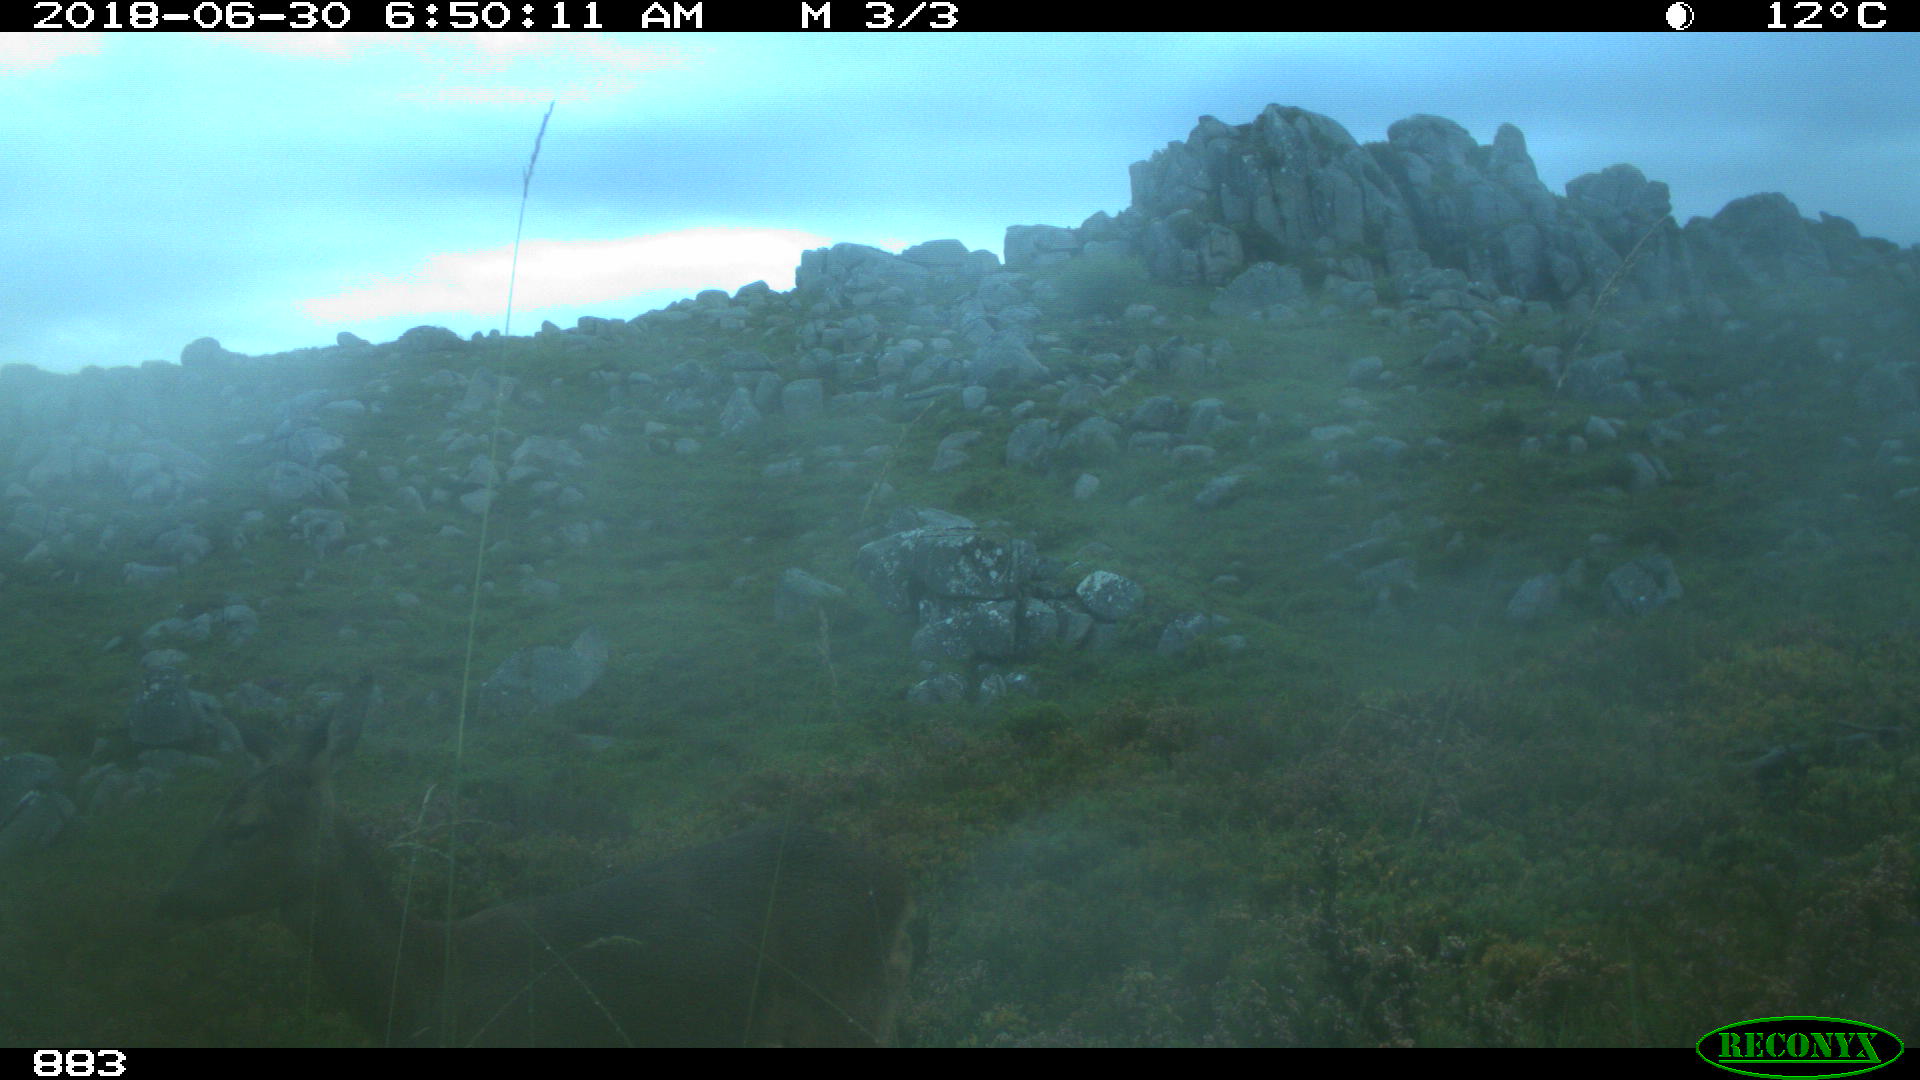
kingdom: Animalia
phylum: Chordata
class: Mammalia
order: Artiodactyla
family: Cervidae
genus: Capreolus
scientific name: Capreolus capreolus
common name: Western roe deer
